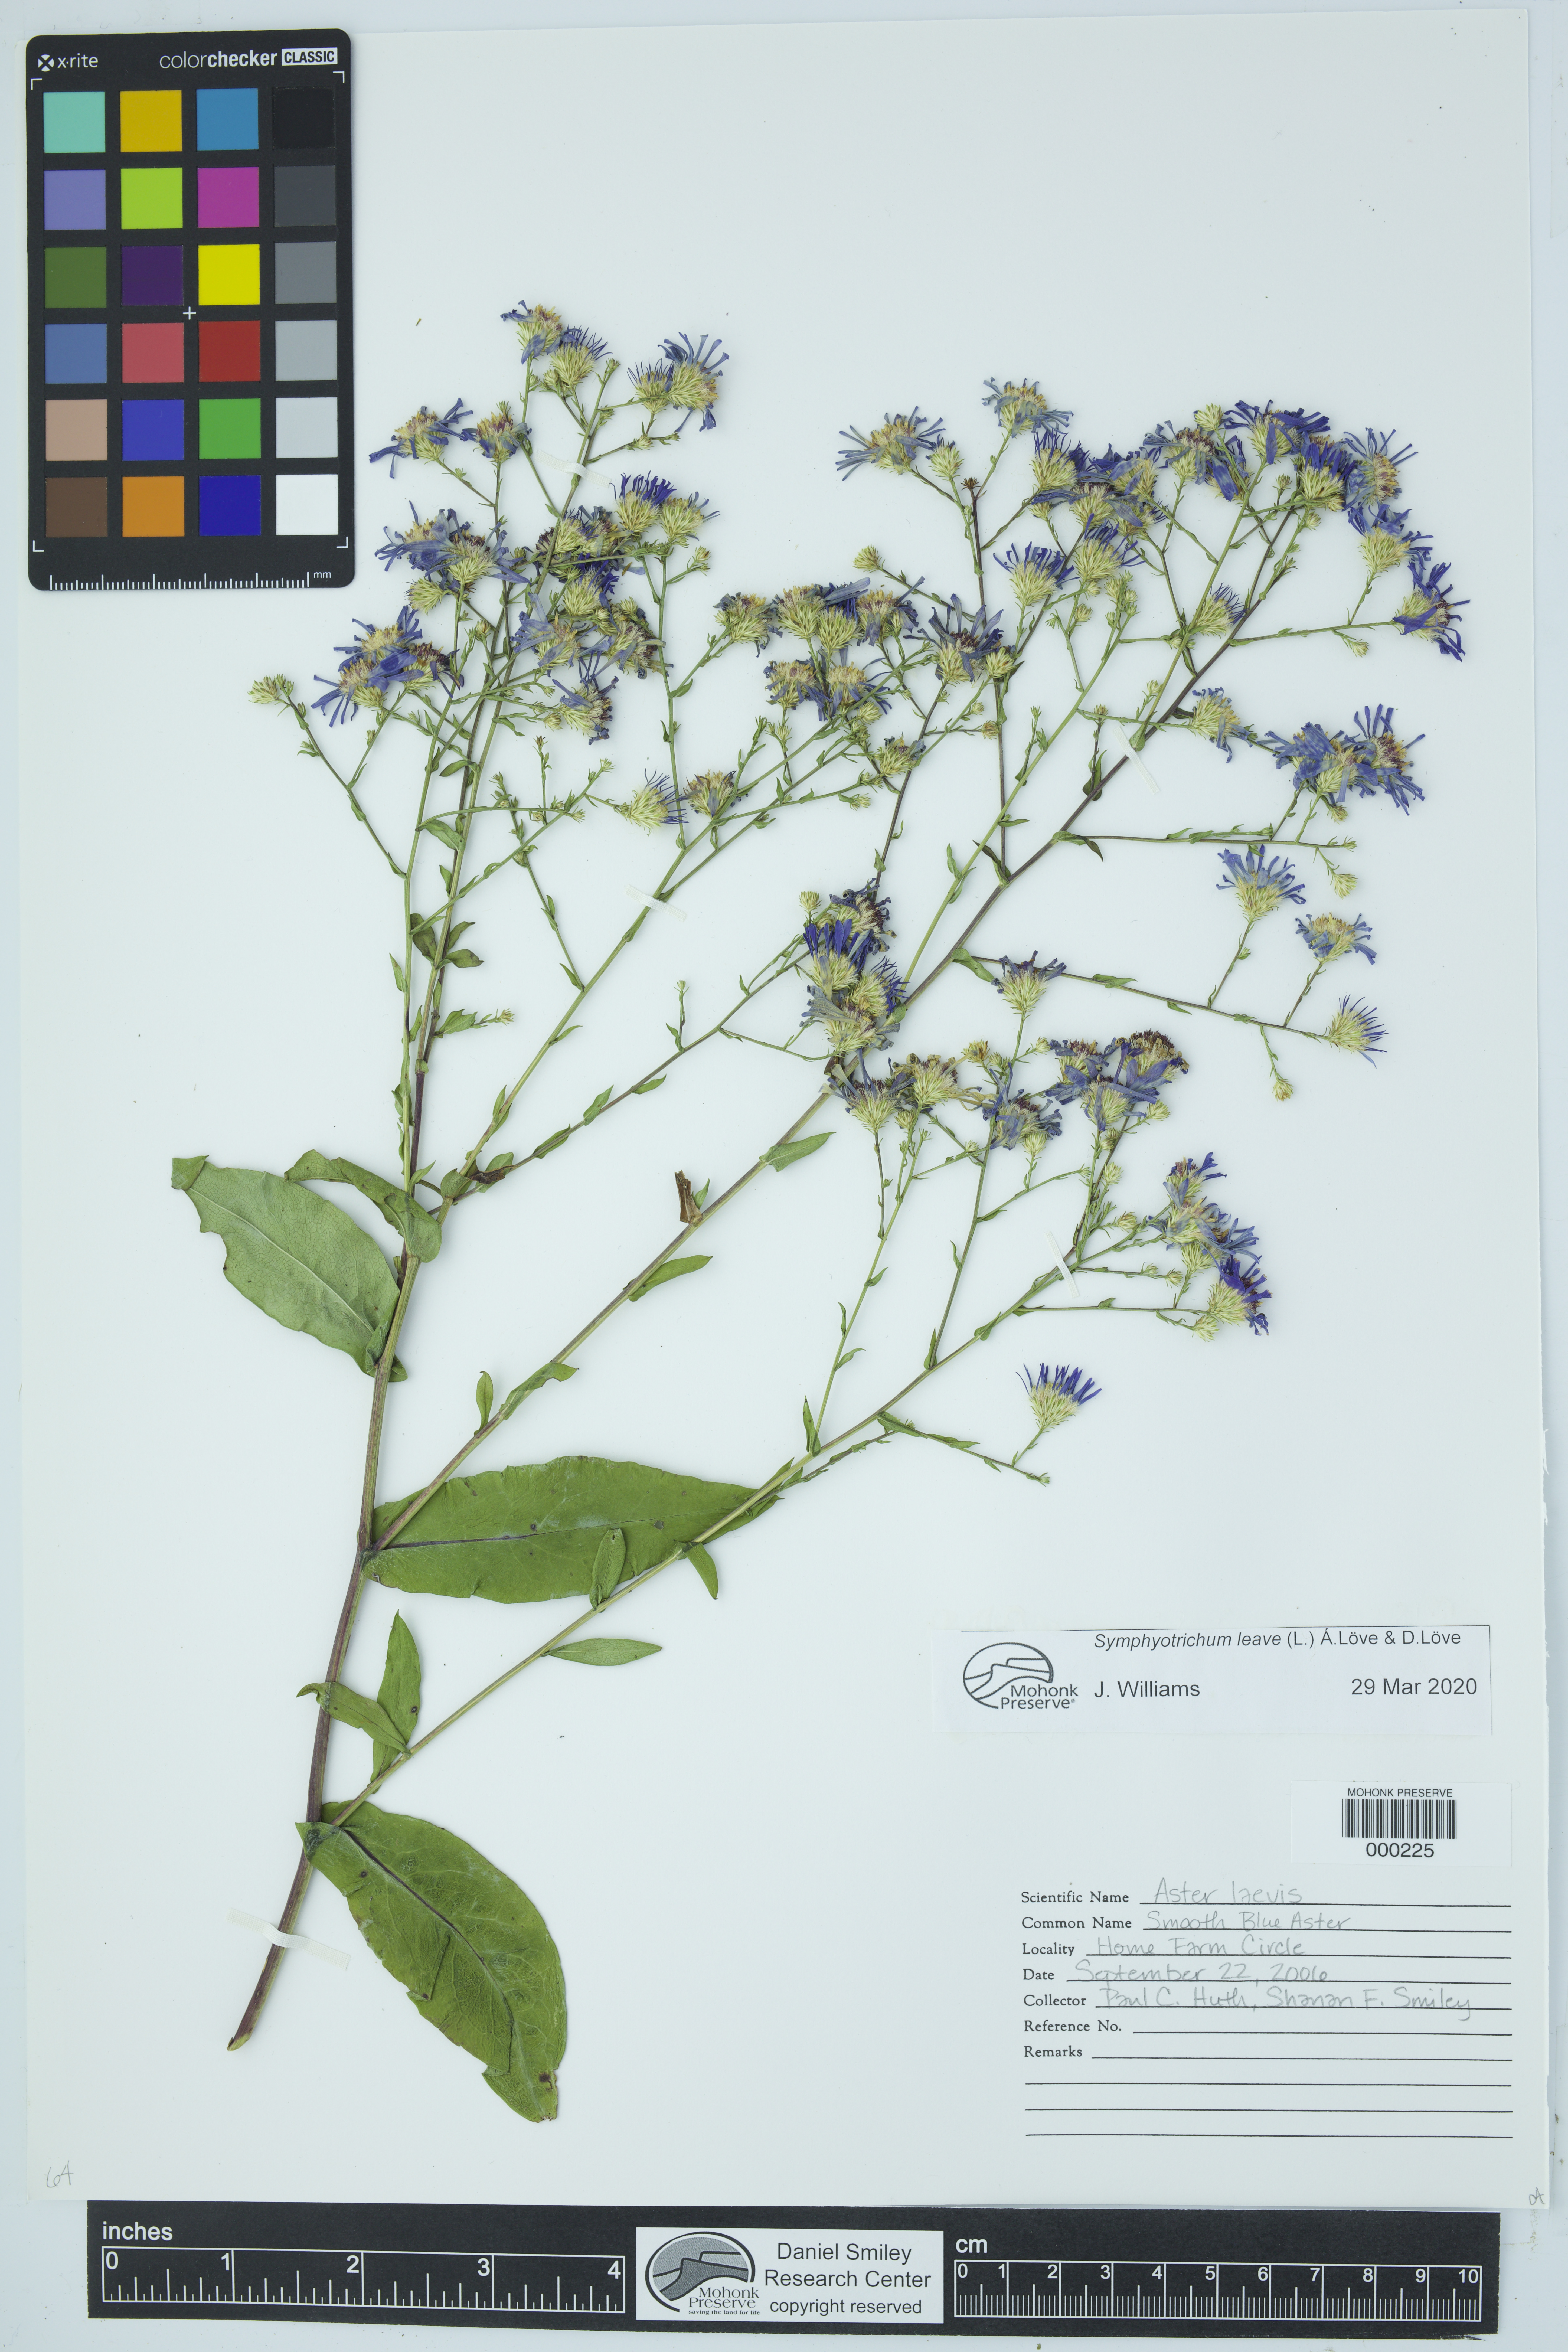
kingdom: Plantae
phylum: Tracheophyta
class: Magnoliopsida
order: Asterales
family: Asteraceae
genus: Symphyotrichum
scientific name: Symphyotrichum laeve
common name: Glaucous aster
